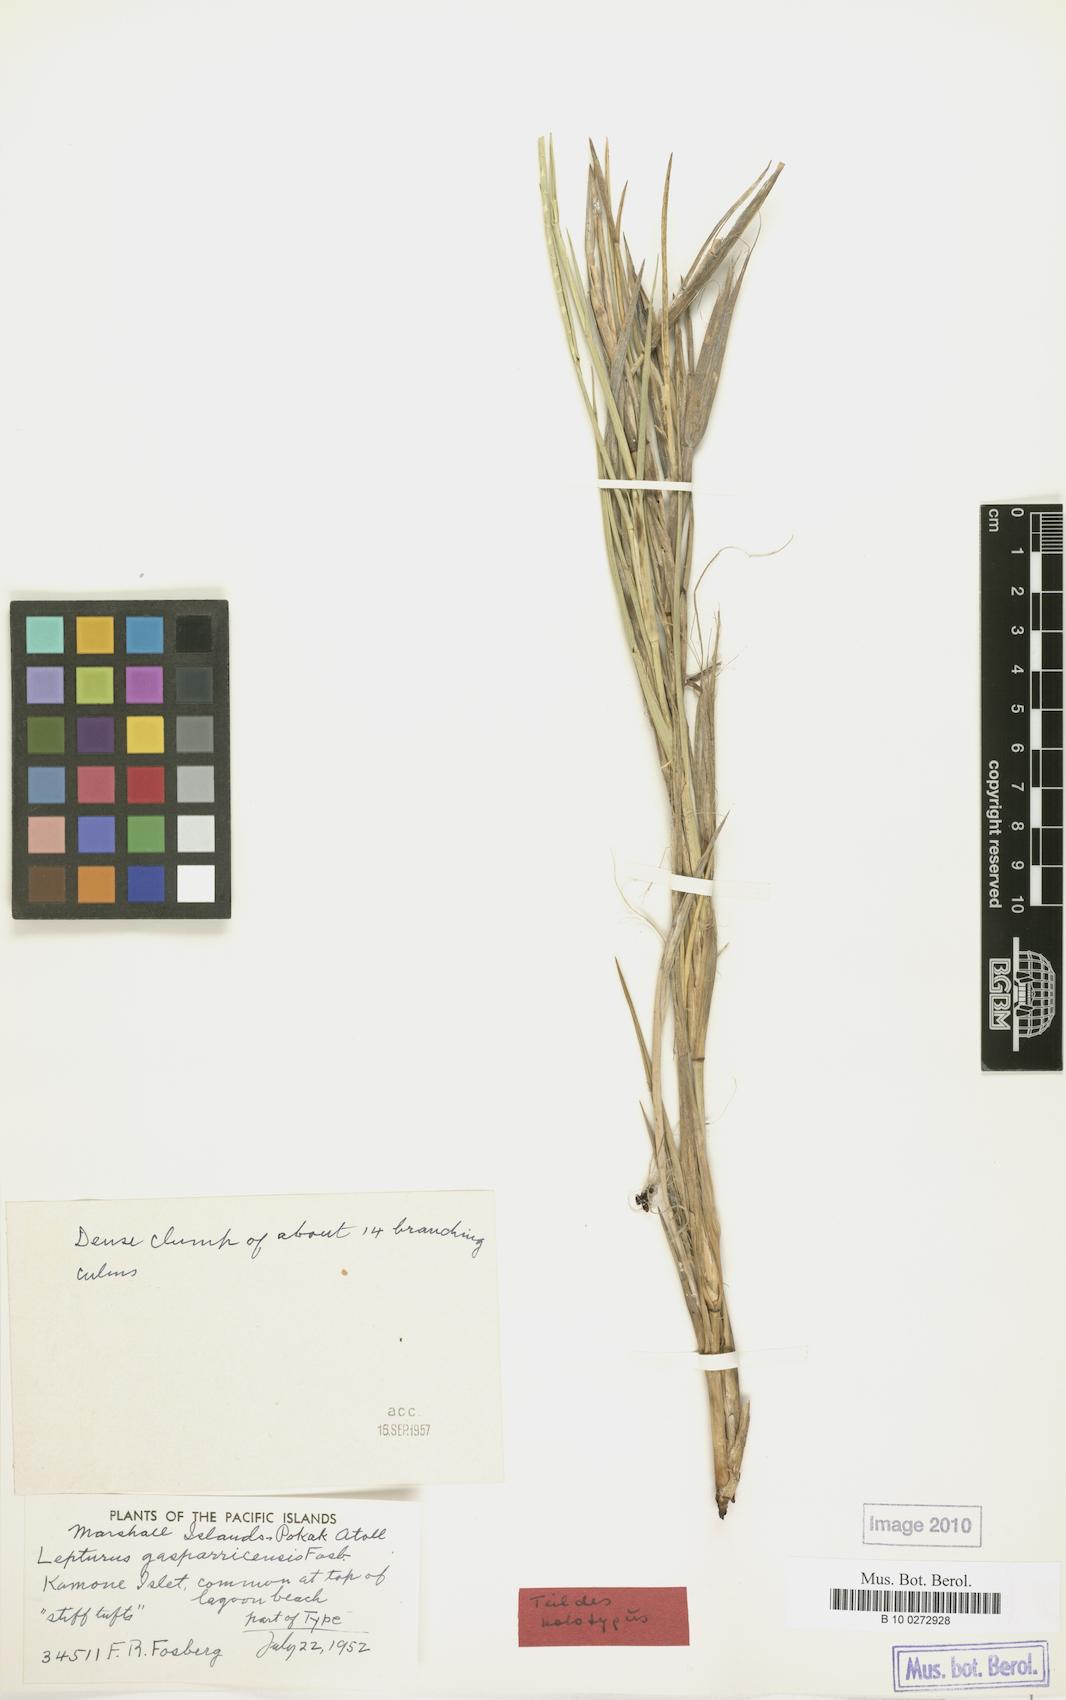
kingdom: Plantae
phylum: Tracheophyta
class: Liliopsida
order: Poales
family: Poaceae
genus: Lepturus
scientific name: Lepturus repens
